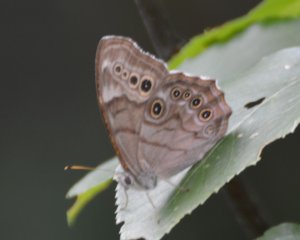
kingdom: Animalia
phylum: Arthropoda
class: Insecta
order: Lepidoptera
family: Nymphalidae
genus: Lethe
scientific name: Lethe anthedon
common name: Northern Pearly-Eye
